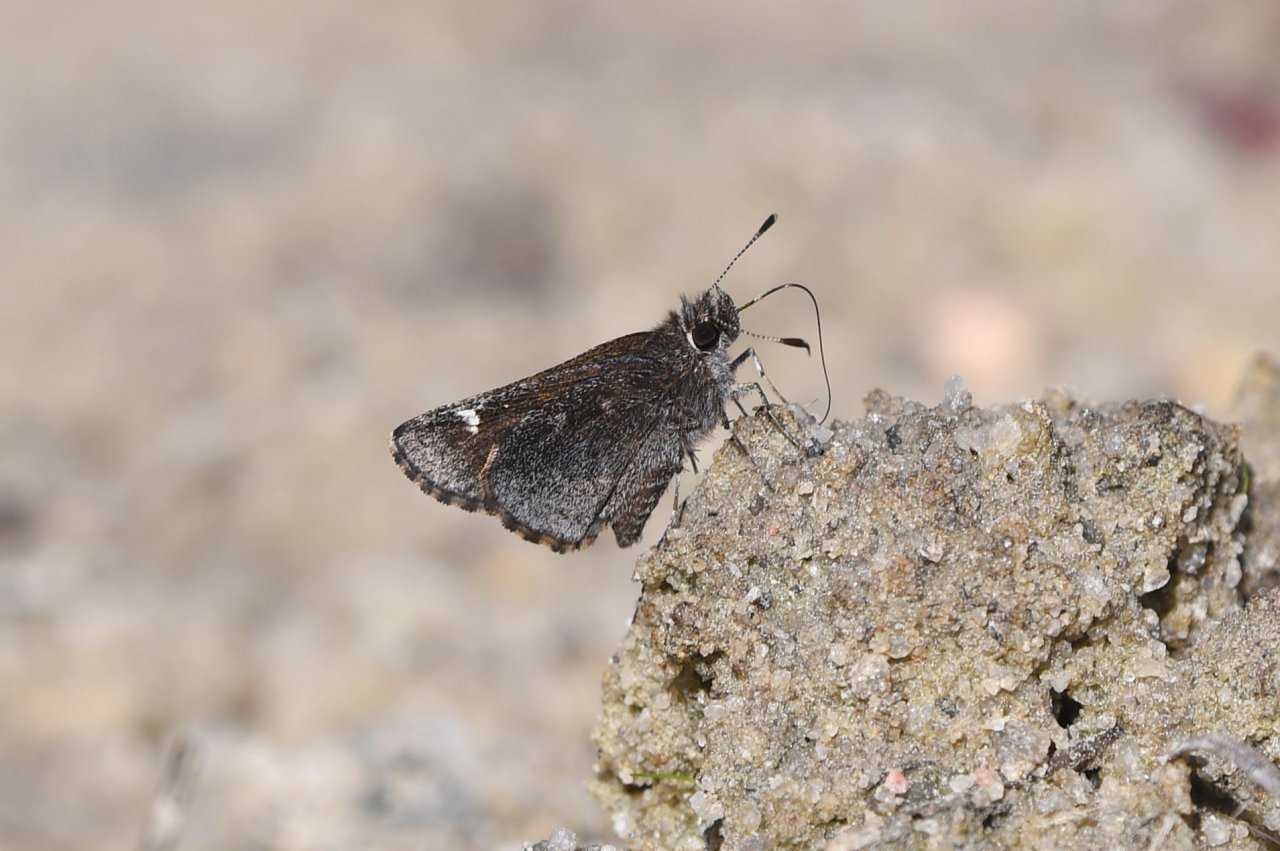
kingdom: Animalia
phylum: Arthropoda
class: Insecta
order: Lepidoptera
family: Hesperiidae
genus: Mastor
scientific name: Mastor vialis
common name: Common Roadside-Skipper
